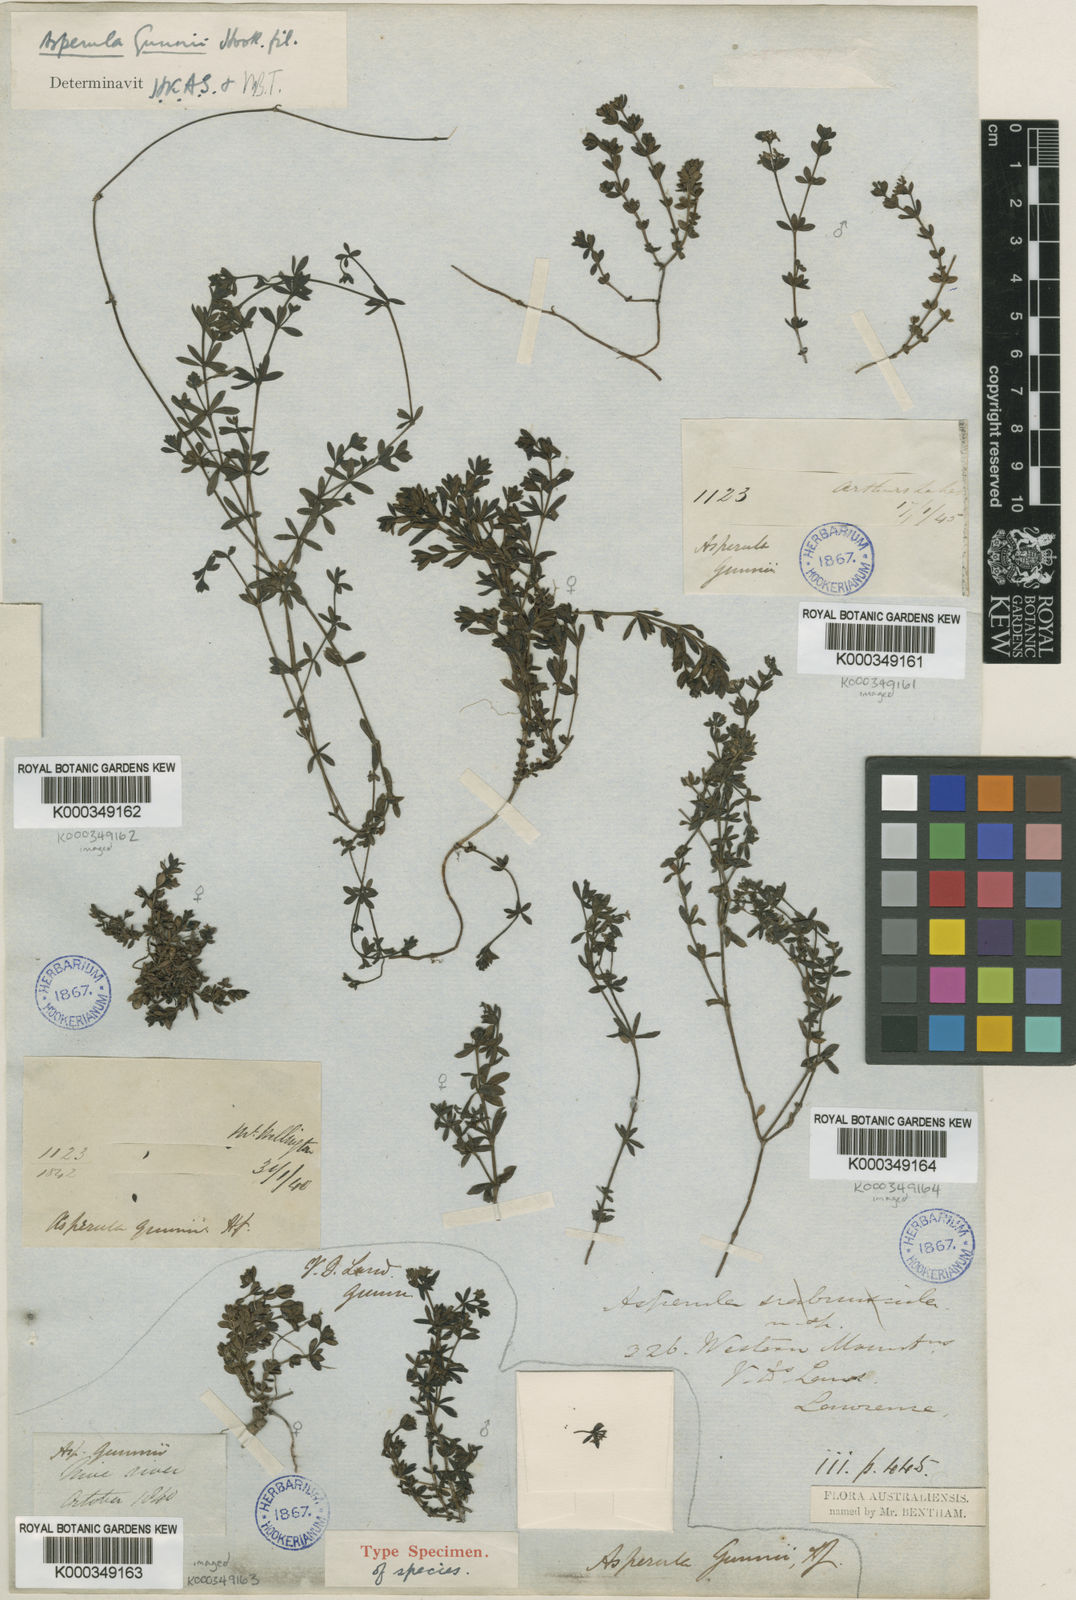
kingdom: Plantae
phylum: Tracheophyta
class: Magnoliopsida
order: Gentianales
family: Rubiaceae
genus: Asperula
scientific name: Asperula gunnii
